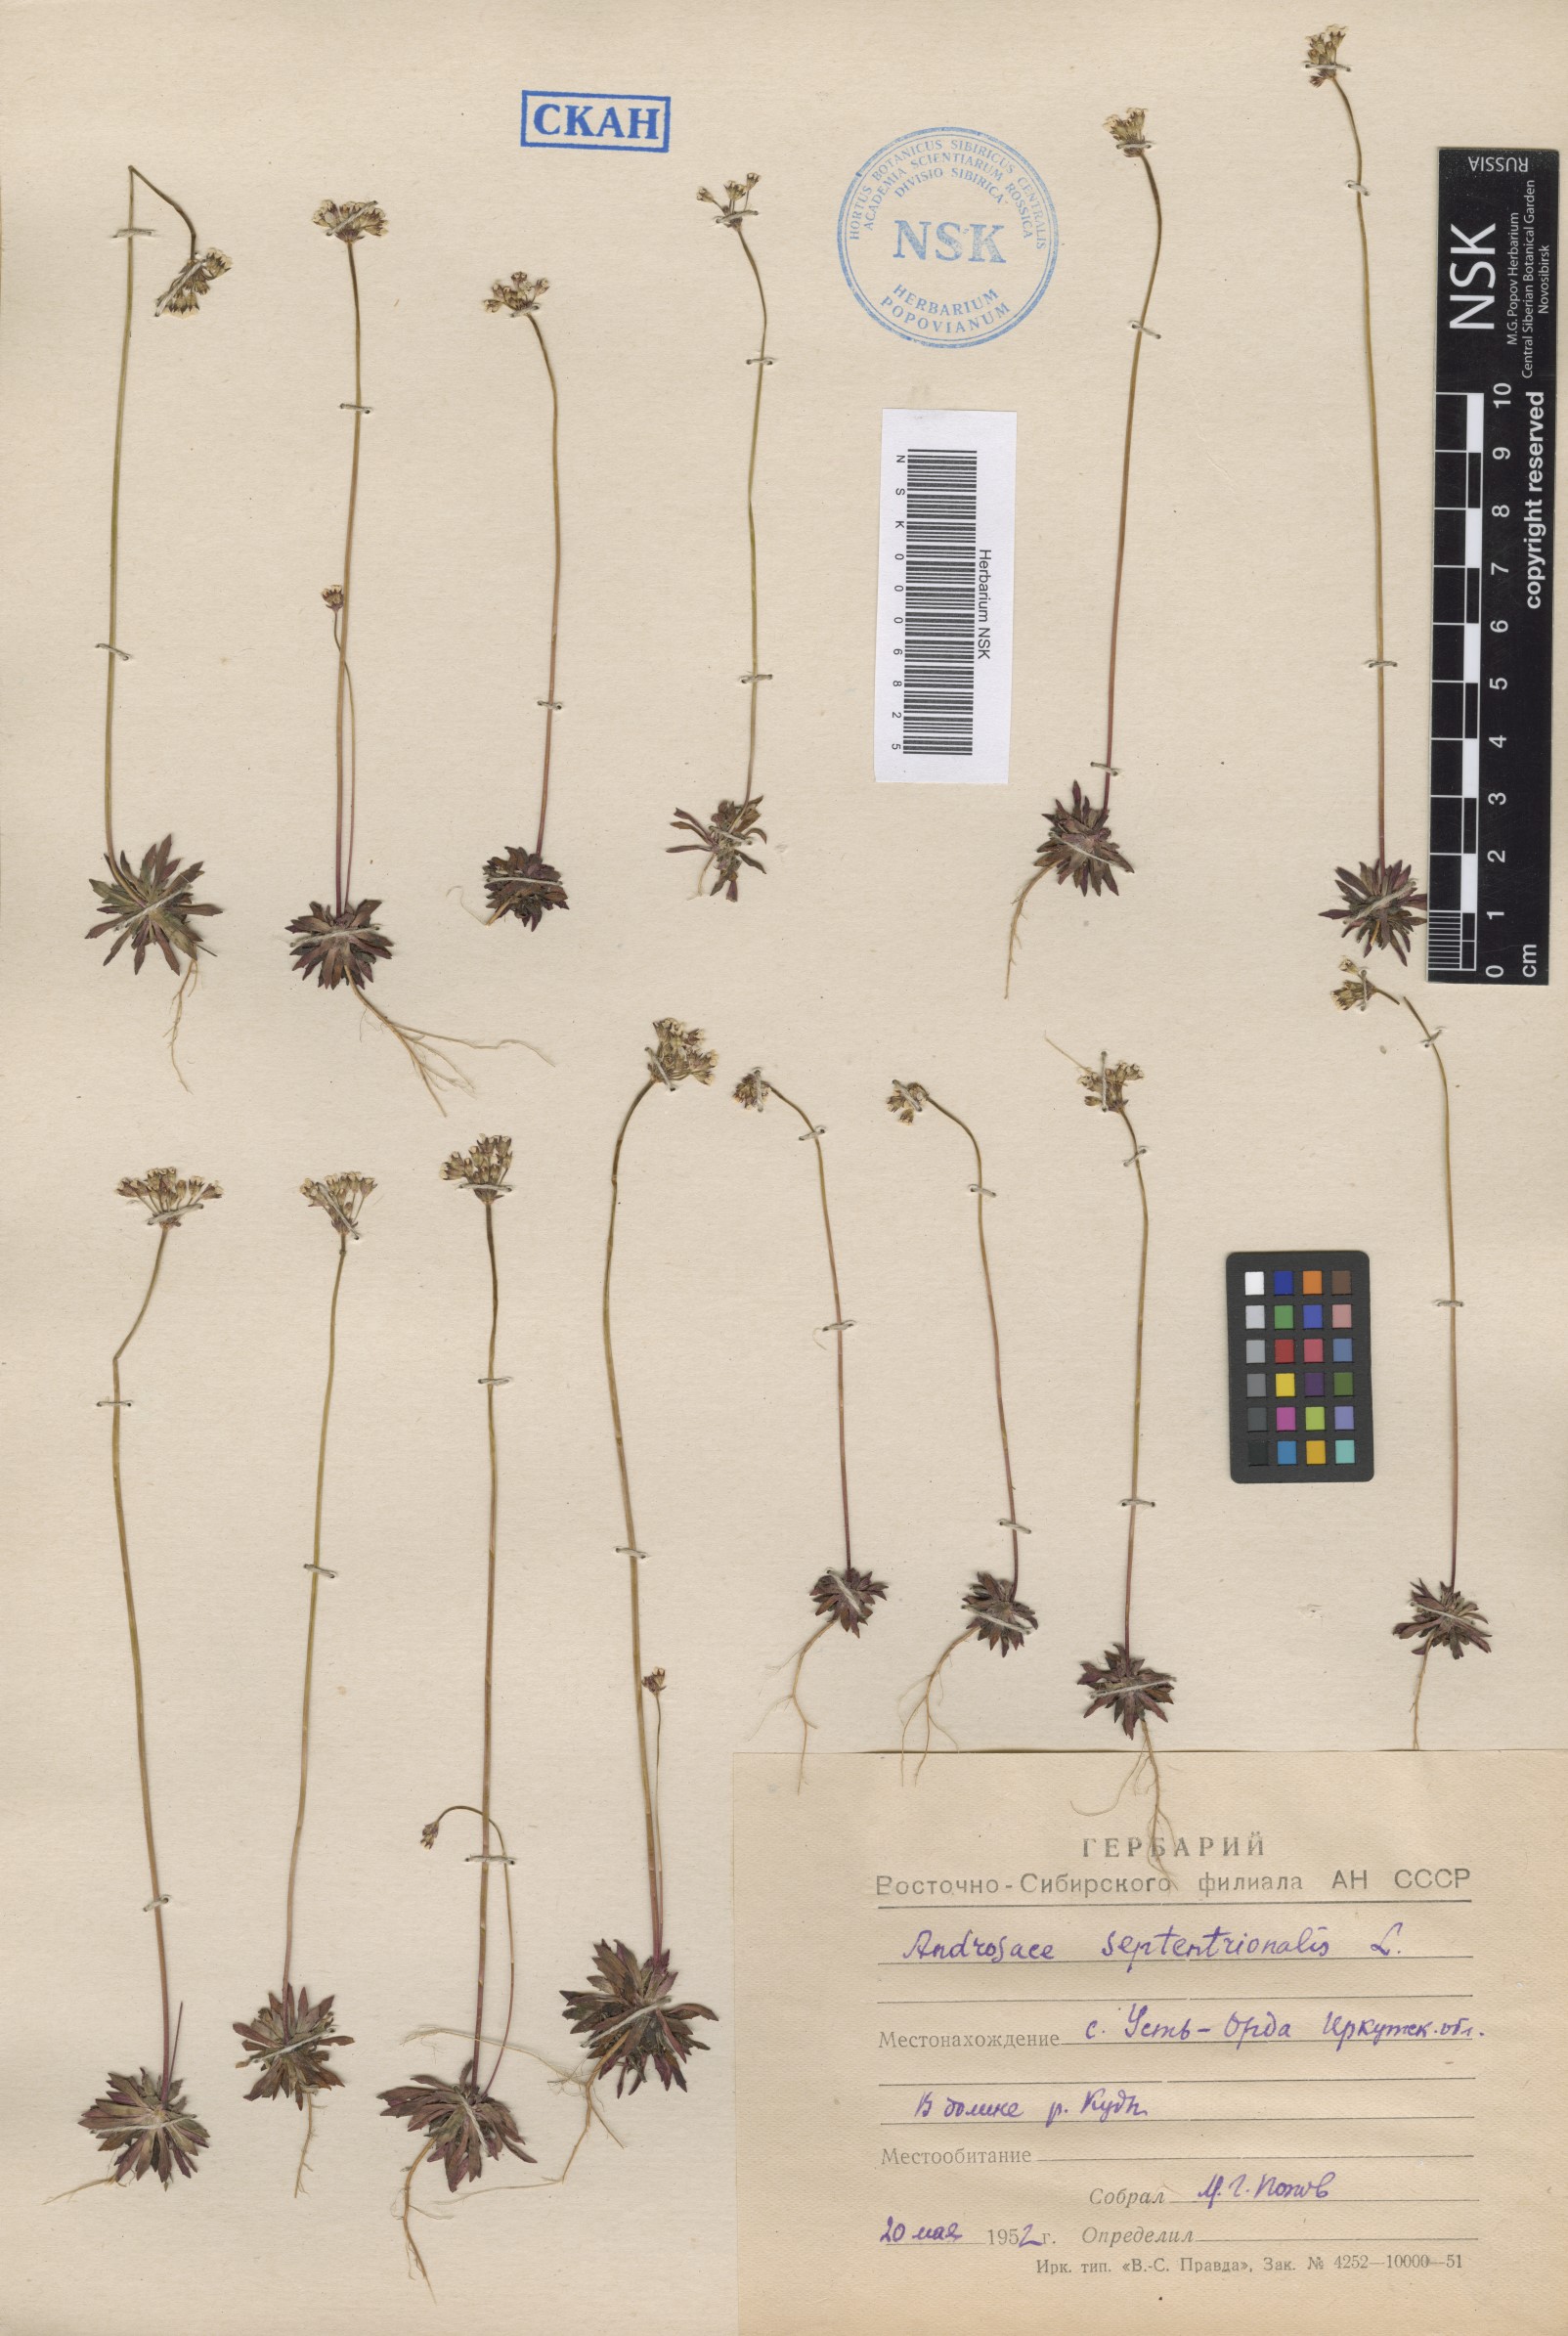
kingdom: Plantae
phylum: Tracheophyta
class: Magnoliopsida
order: Ericales
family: Primulaceae
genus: Androsace
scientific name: Androsace septentrionalis
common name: Hairy northern fairy-candelabra
